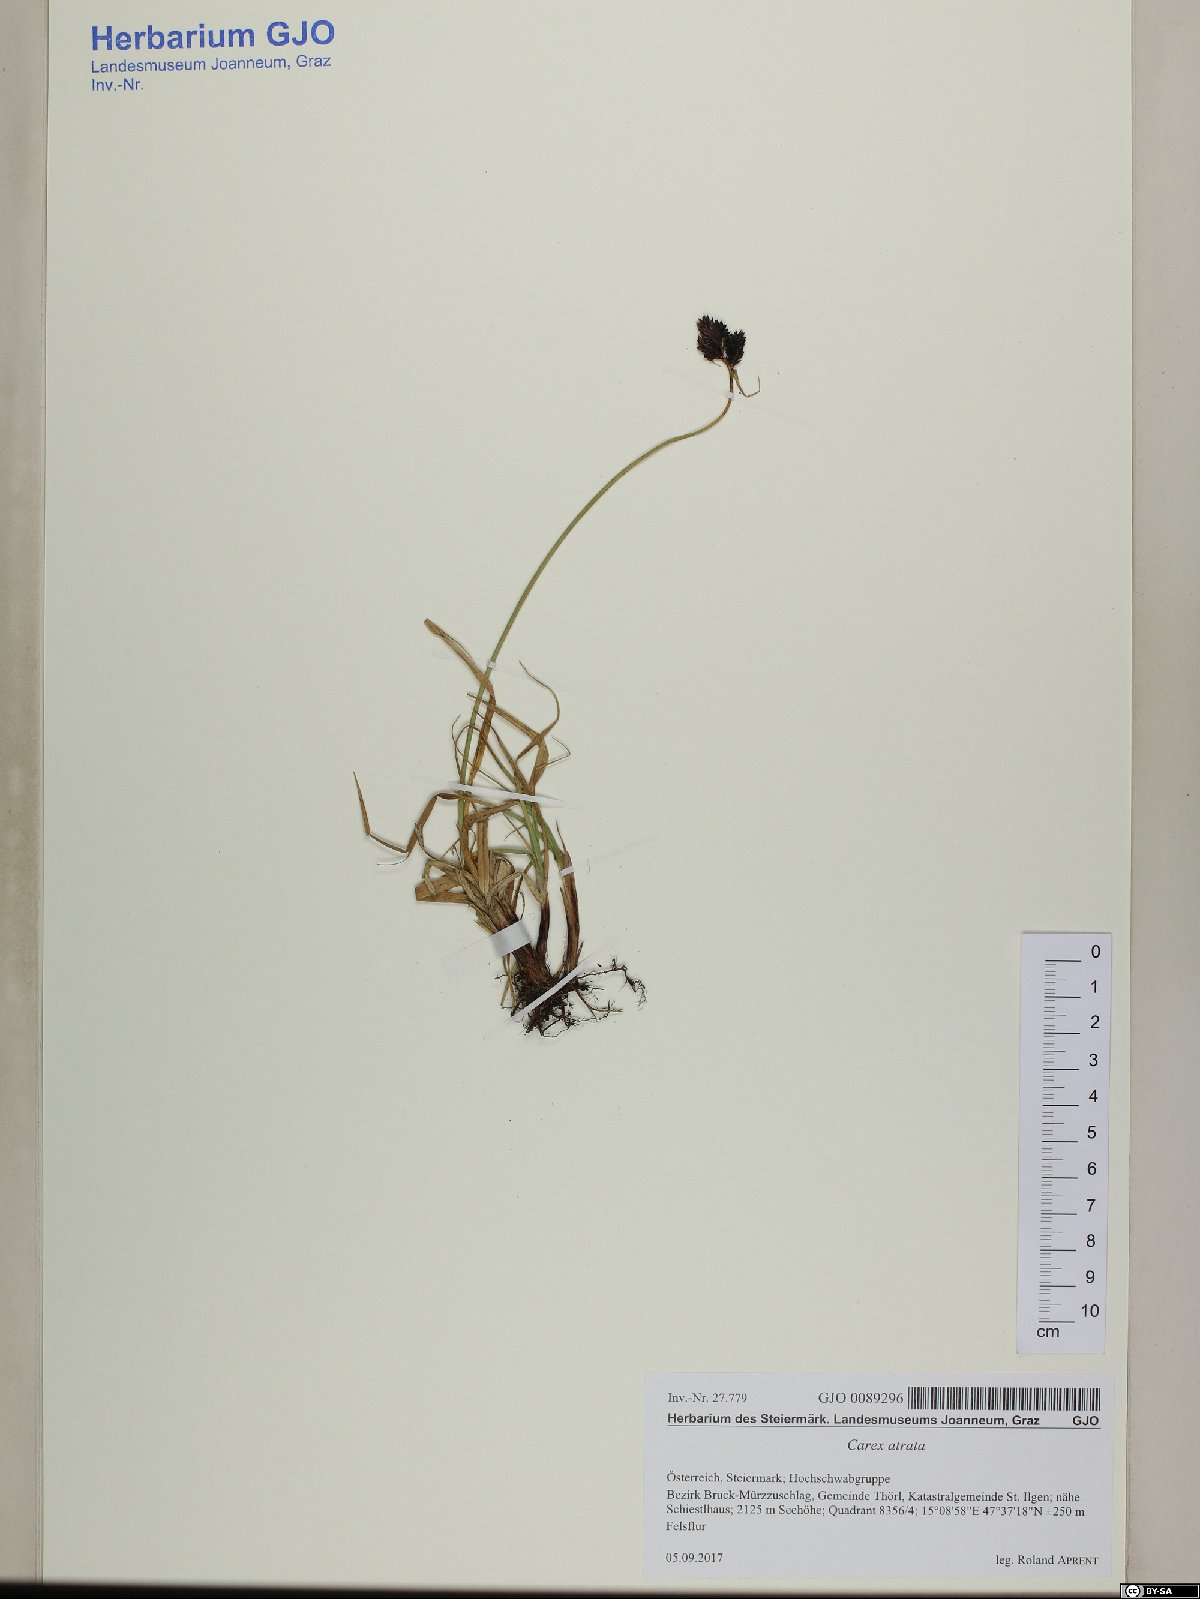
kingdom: Plantae
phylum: Tracheophyta
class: Liliopsida
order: Poales
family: Cyperaceae
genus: Carex
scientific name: Carex atrata
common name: Black alpine sedge
